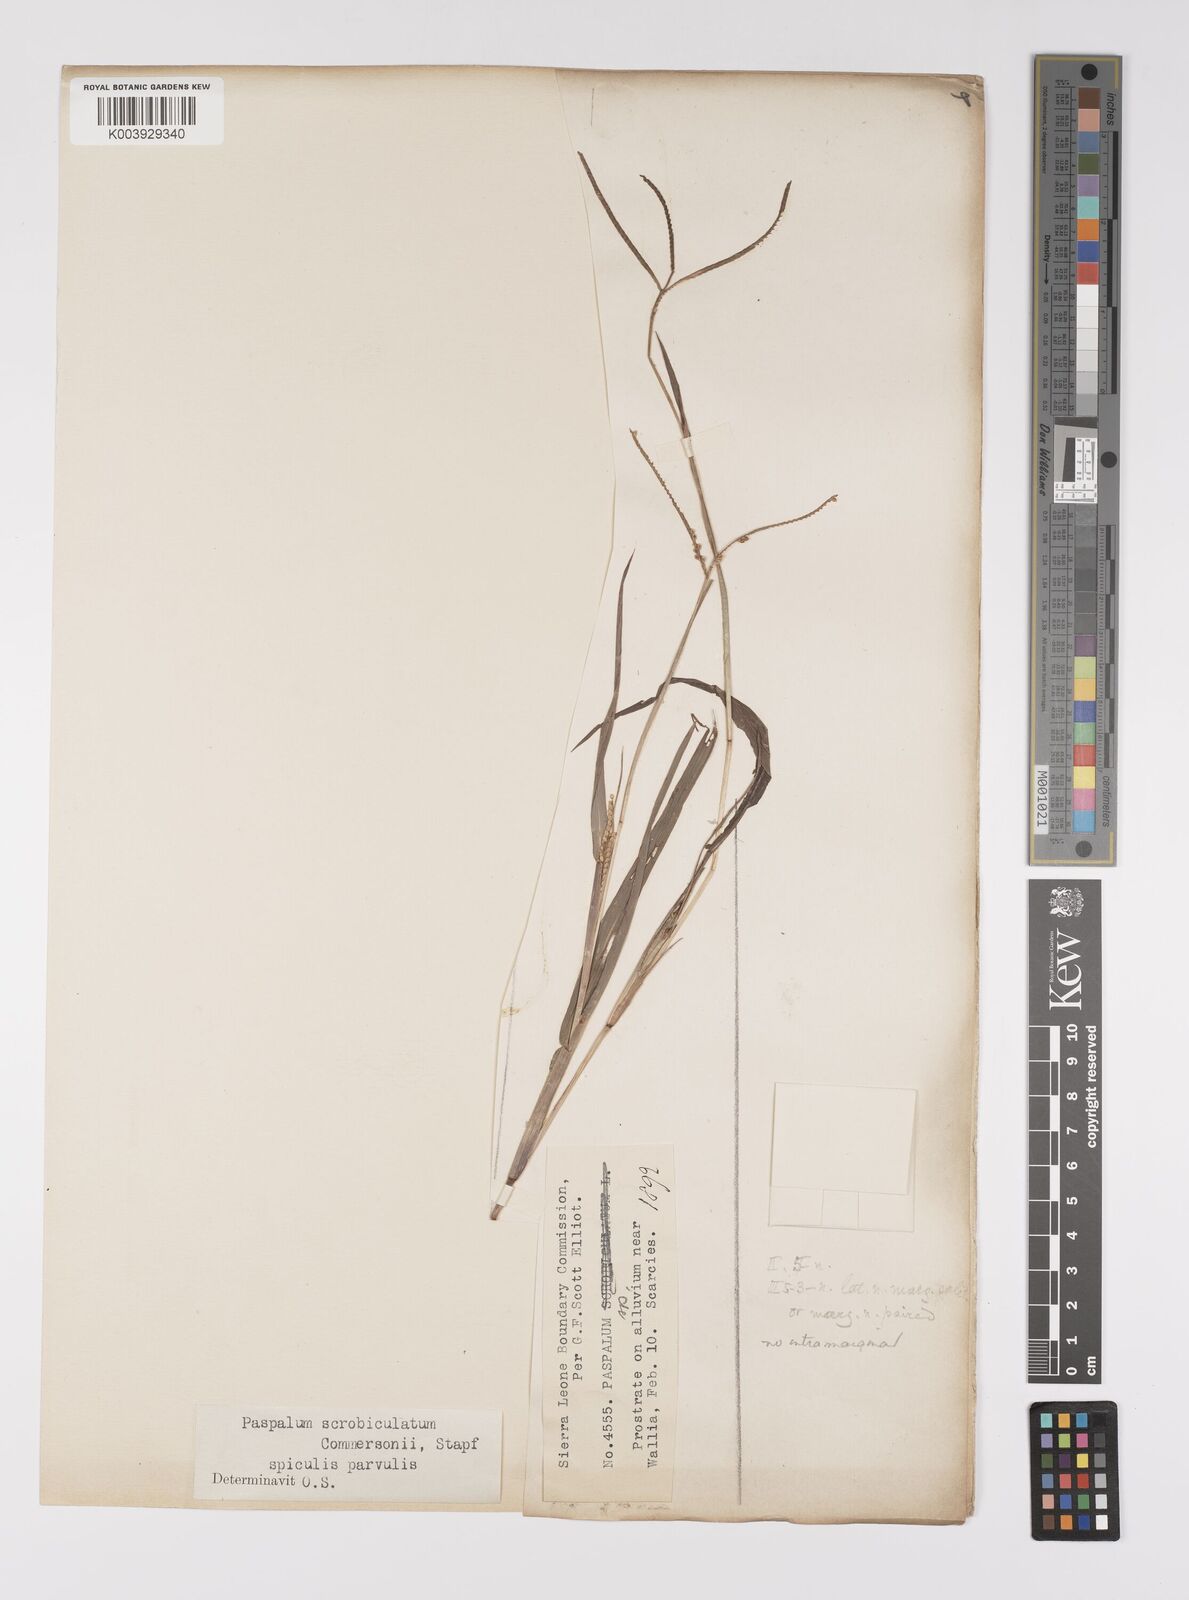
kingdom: Plantae
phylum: Tracheophyta
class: Liliopsida
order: Poales
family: Poaceae
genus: Paspalum
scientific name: Paspalum scrobiculatum
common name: Kodo millet
